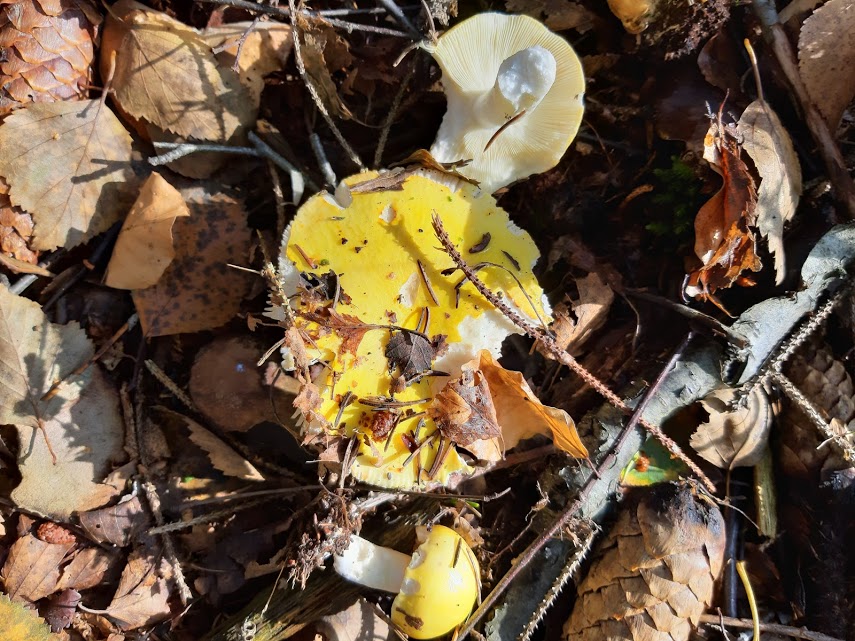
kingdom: Fungi
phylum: Basidiomycota
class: Agaricomycetes
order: Russulales
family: Russulaceae
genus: Russula
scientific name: Russula claroflava
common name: birke-skørhat
